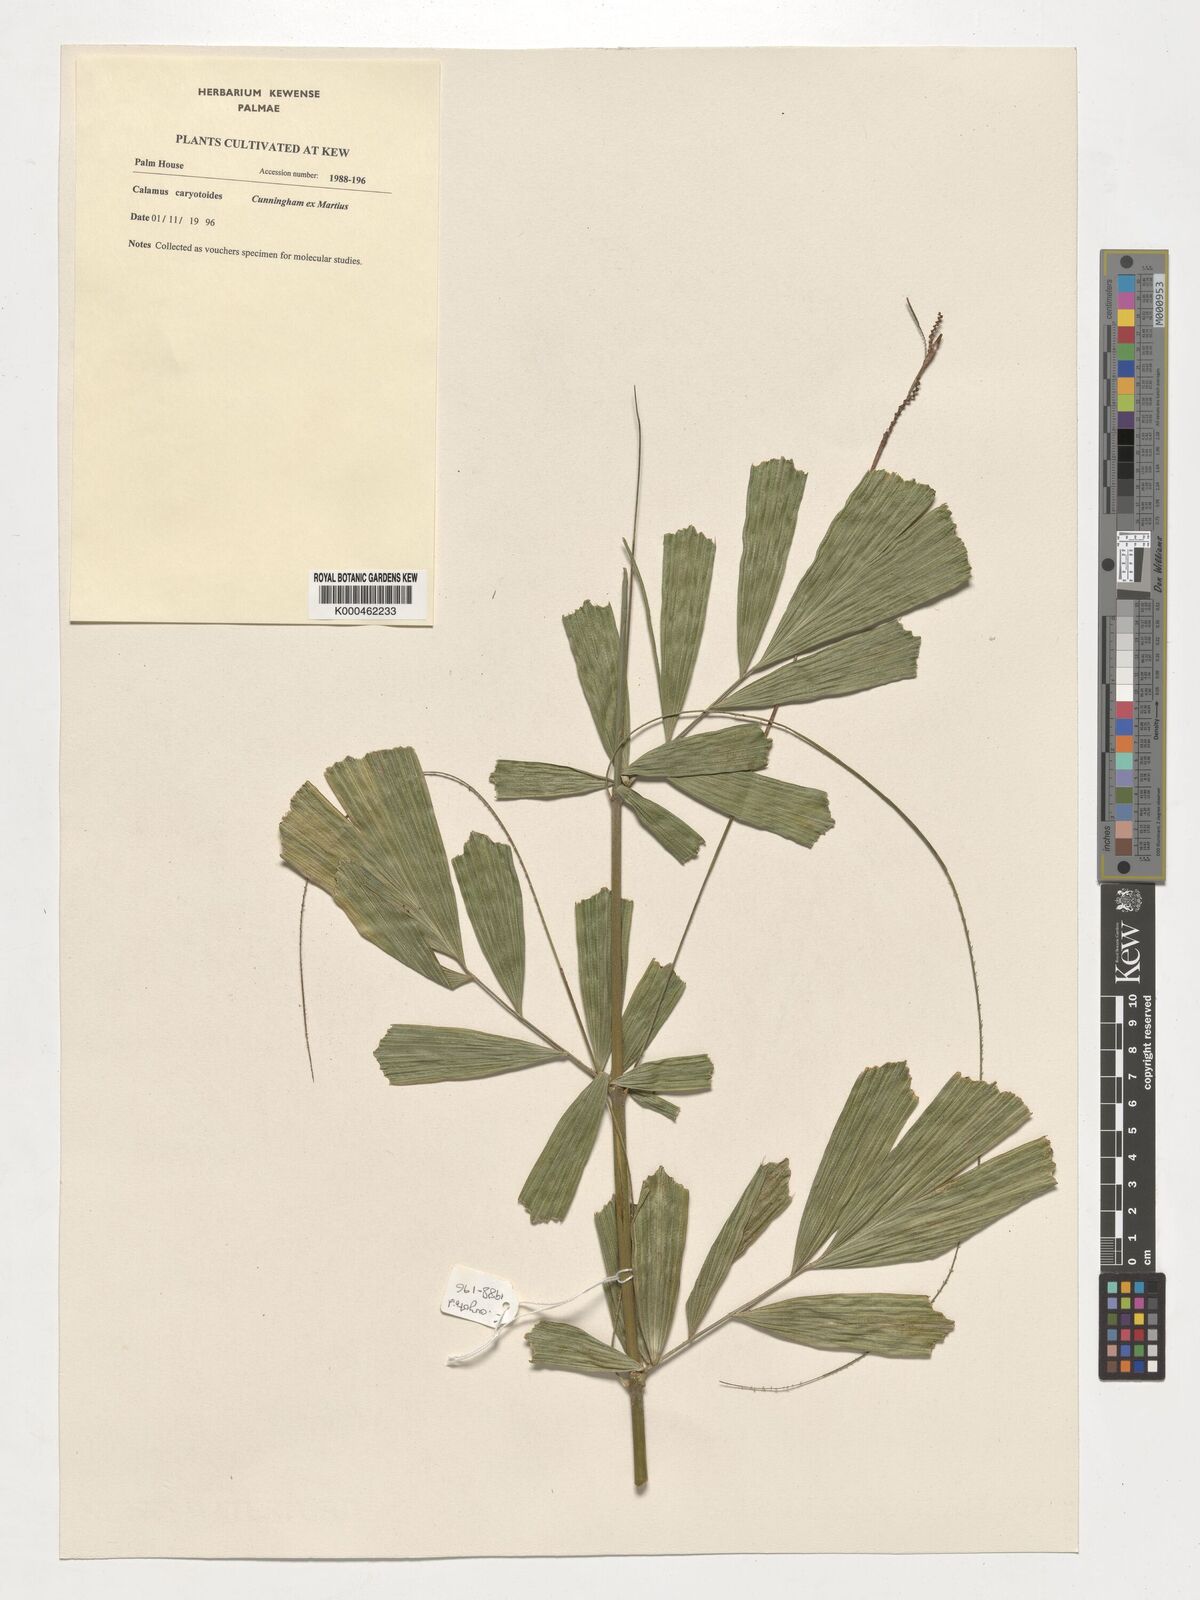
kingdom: Plantae
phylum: Tracheophyta
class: Liliopsida
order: Arecales
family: Arecaceae
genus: Calamus
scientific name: Calamus caryotoides
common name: Fishtail lawyer cane
